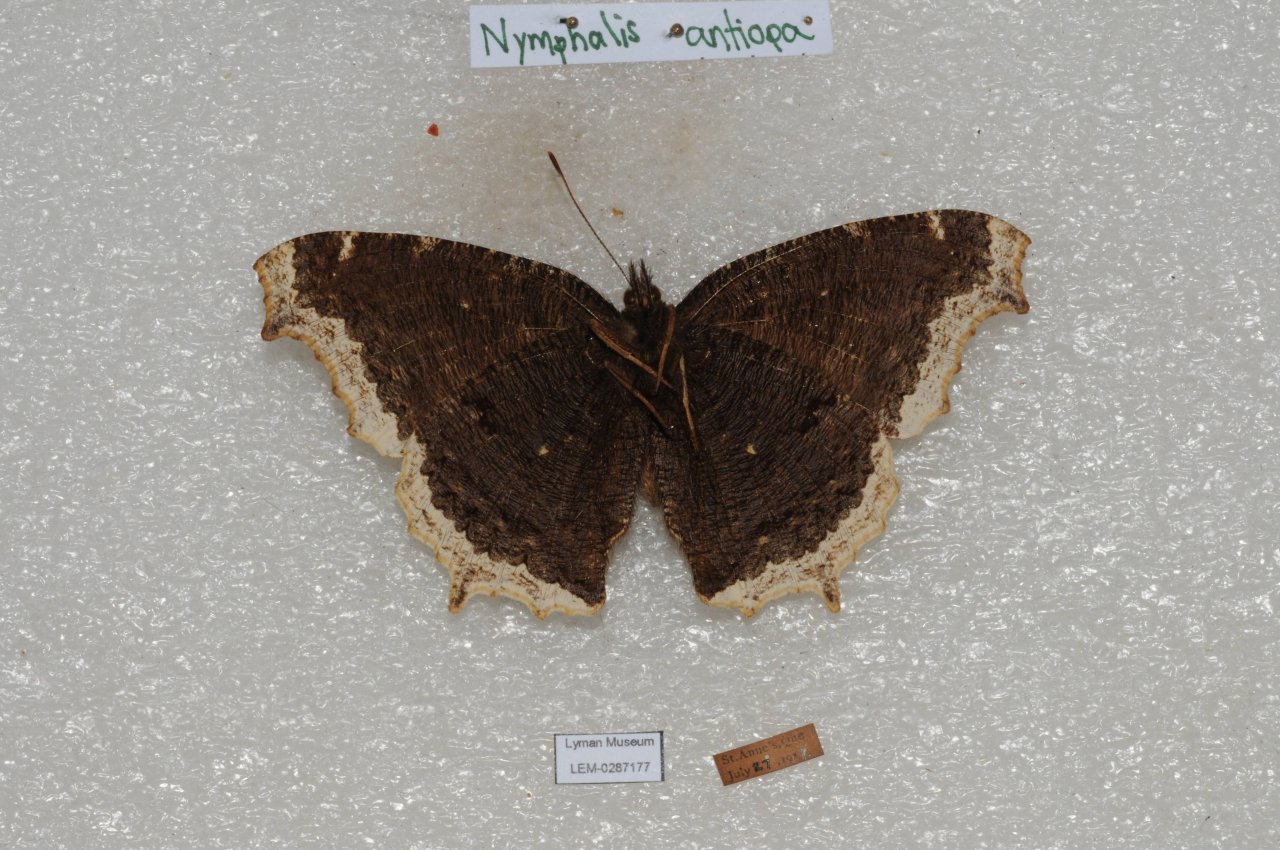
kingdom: Animalia
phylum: Arthropoda
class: Insecta
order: Lepidoptera
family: Nymphalidae
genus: Nymphalis
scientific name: Nymphalis antiopa
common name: Mourning Cloak
